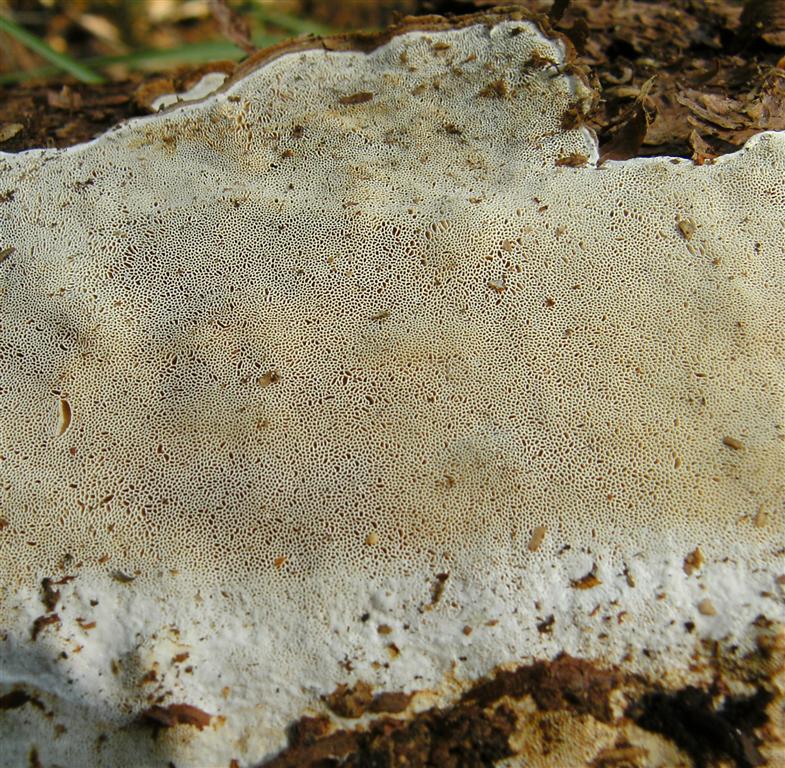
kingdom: Fungi
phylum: Basidiomycota
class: Agaricomycetes
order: Russulales
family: Bondarzewiaceae
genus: Heterobasidion
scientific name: Heterobasidion annosum
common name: almindelig rodfordærver
